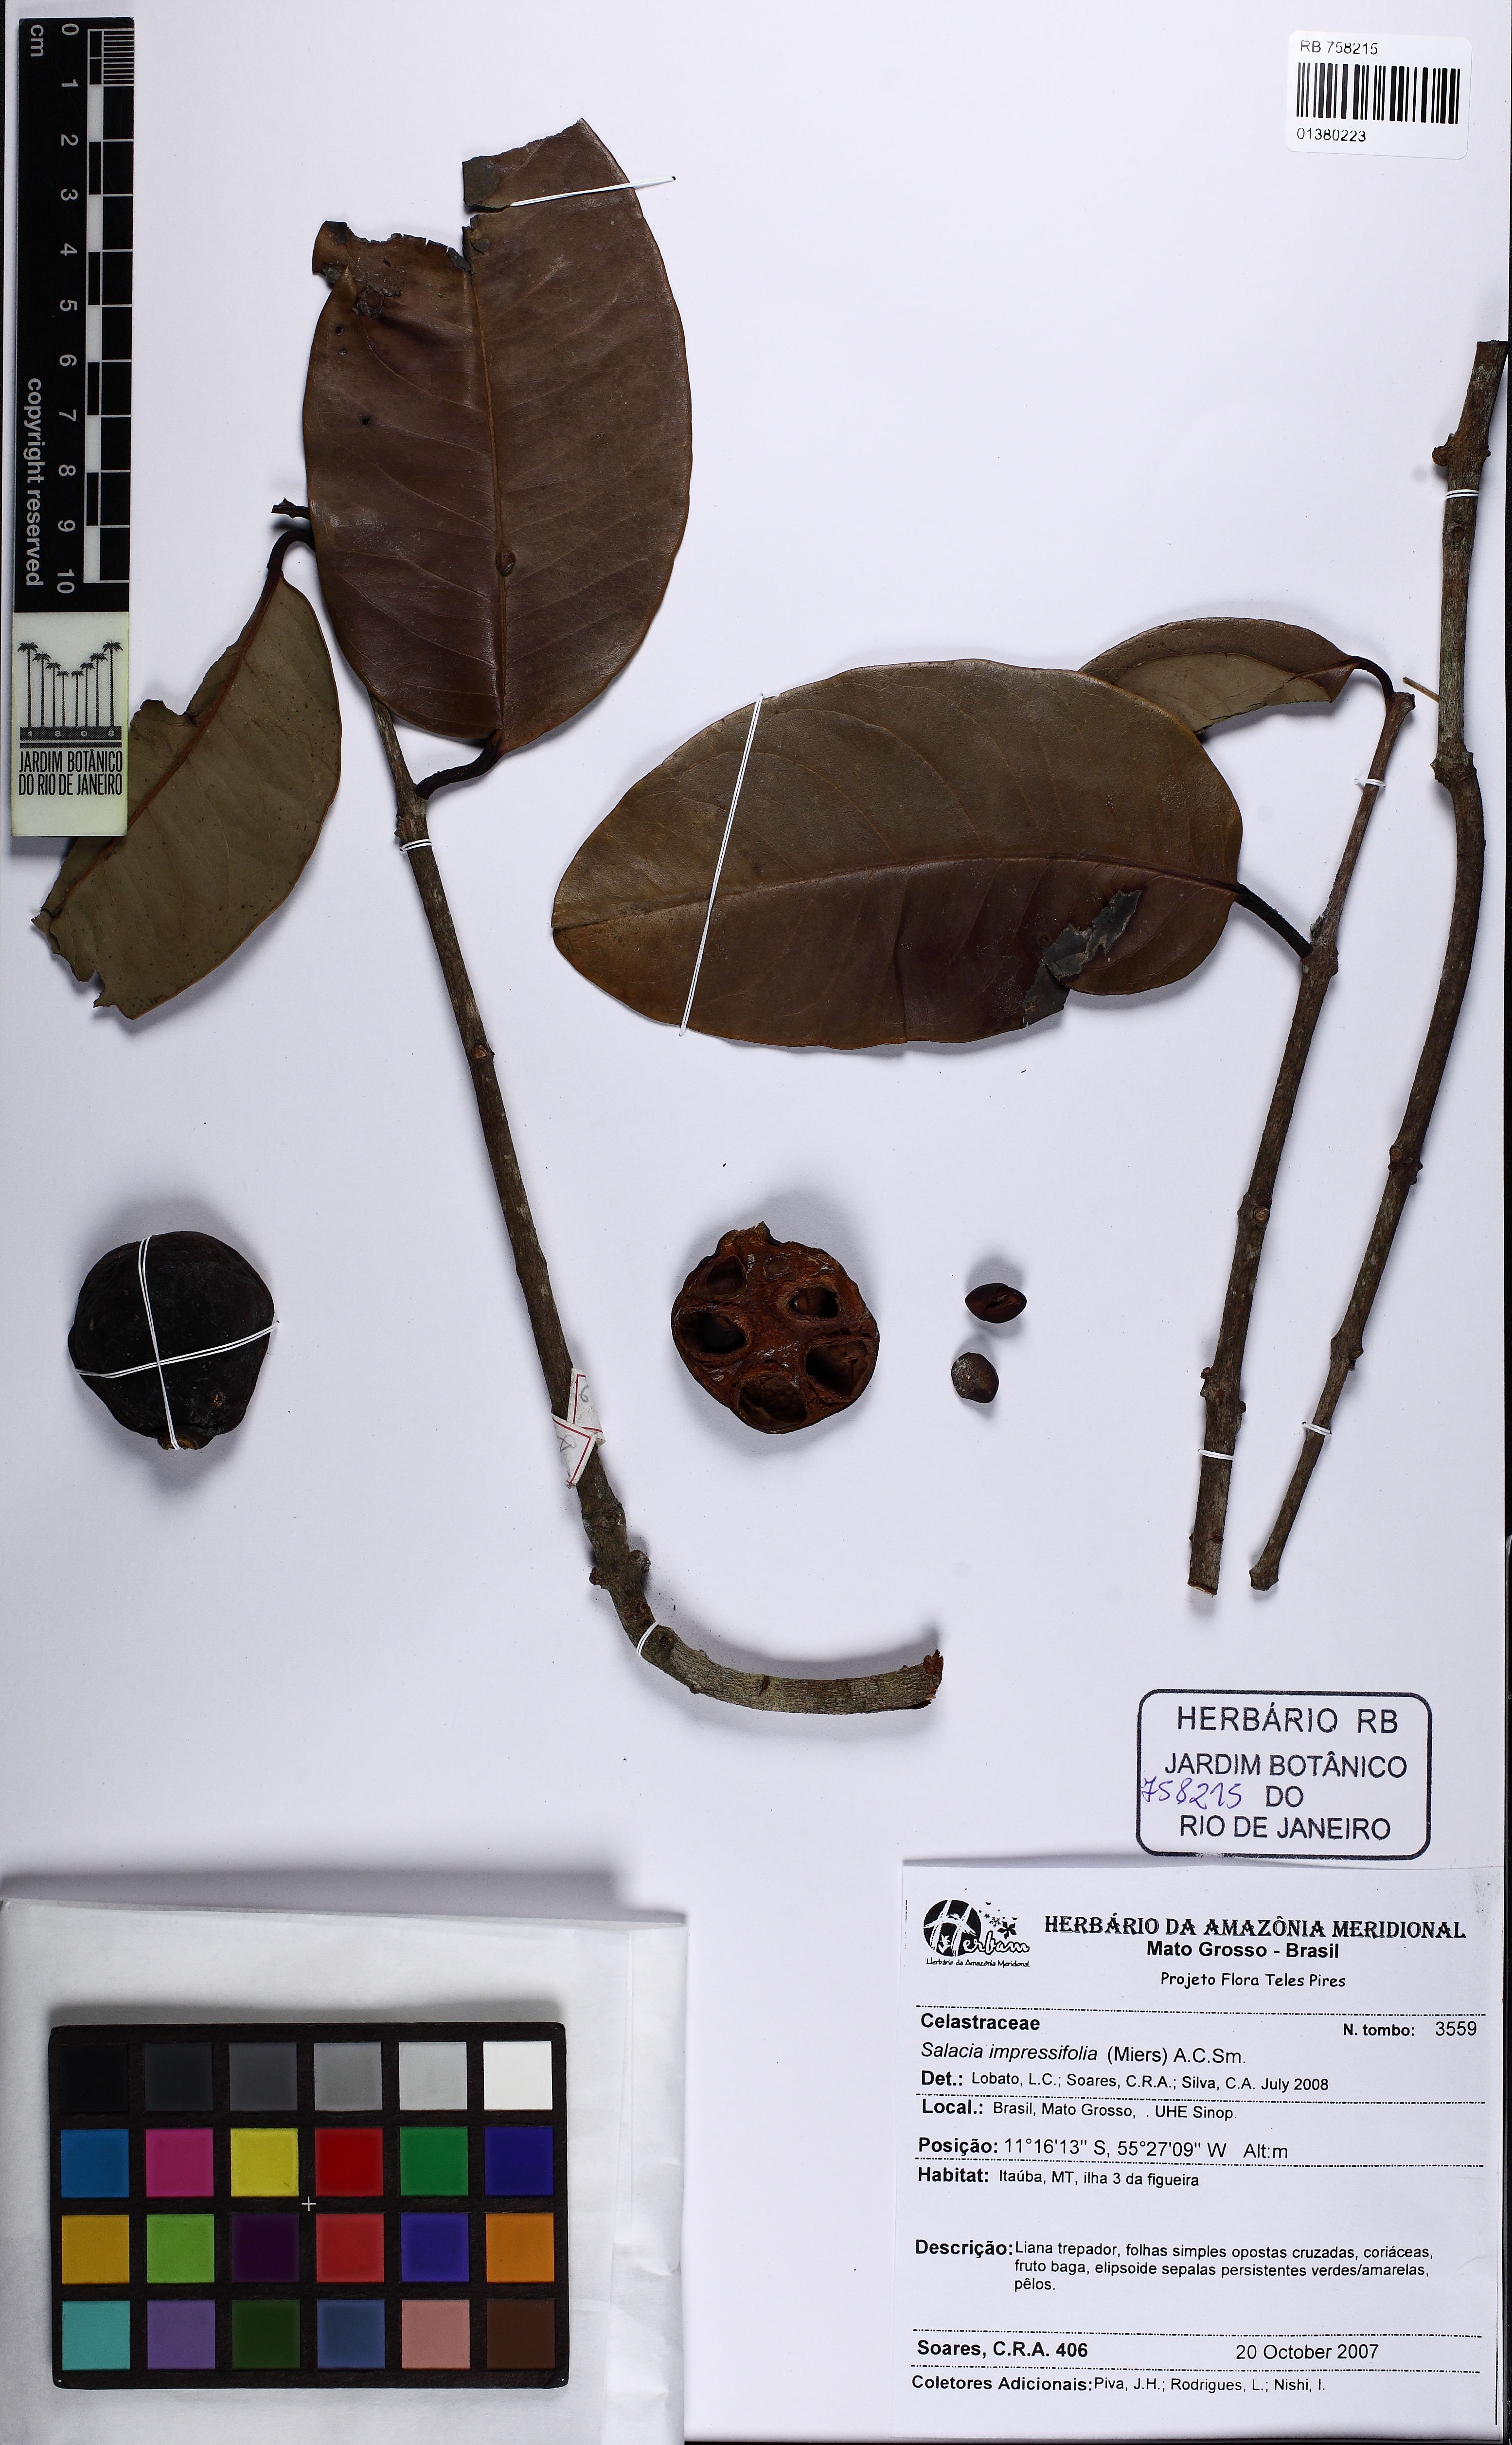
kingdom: Plantae
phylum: Tracheophyta
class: Magnoliopsida
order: Celastrales
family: Celastraceae
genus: Salacia
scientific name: Salacia impressifolia
